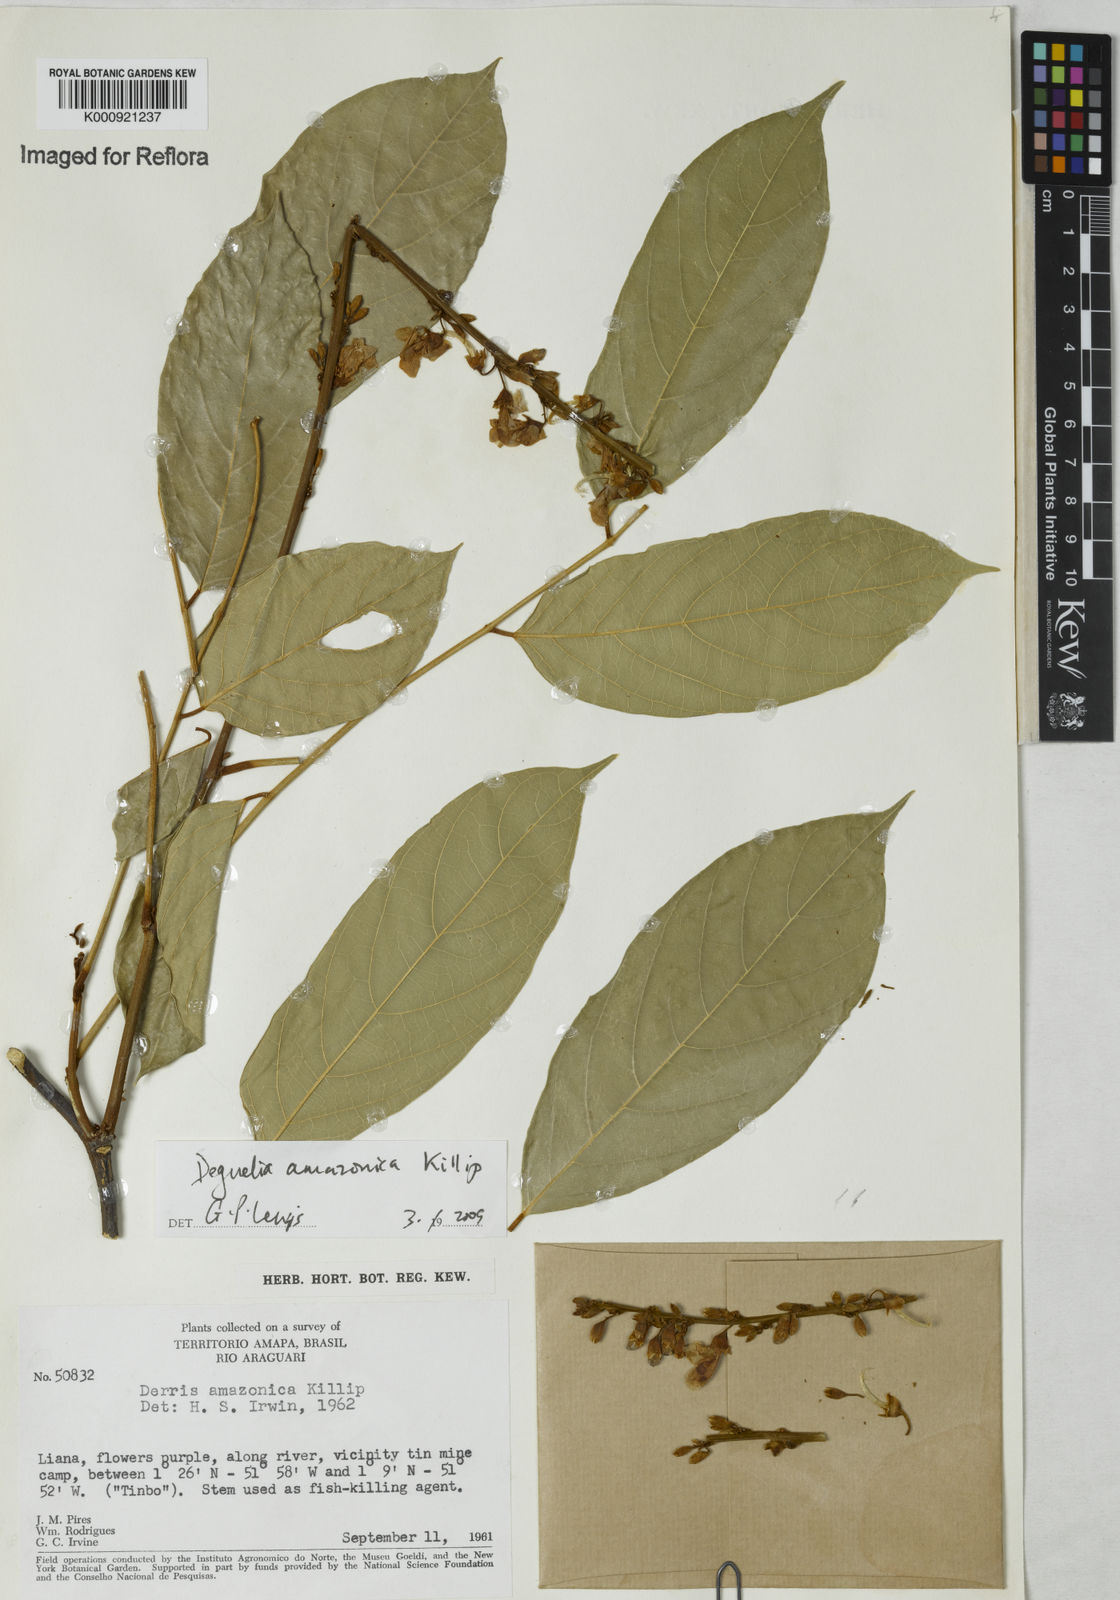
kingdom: Plantae
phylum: Tracheophyta
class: Magnoliopsida
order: Fabales
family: Fabaceae
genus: Deguelia
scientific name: Deguelia amazonica
